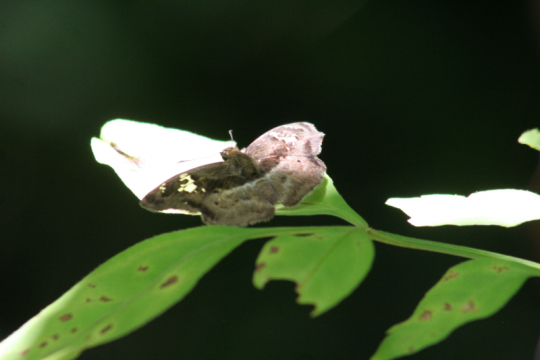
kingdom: Animalia
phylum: Arthropoda
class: Insecta
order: Lepidoptera
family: Hesperiidae
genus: Quadrus
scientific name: Quadrus lugubris
